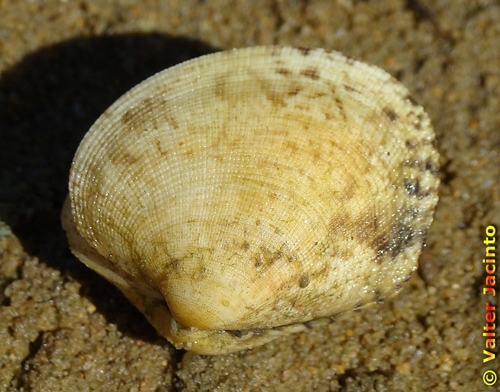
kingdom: Animalia
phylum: Mollusca
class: Bivalvia
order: Venerida
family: Veneridae
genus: Ruditapes
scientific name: Ruditapes decussatus
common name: Chequered carpet shell
